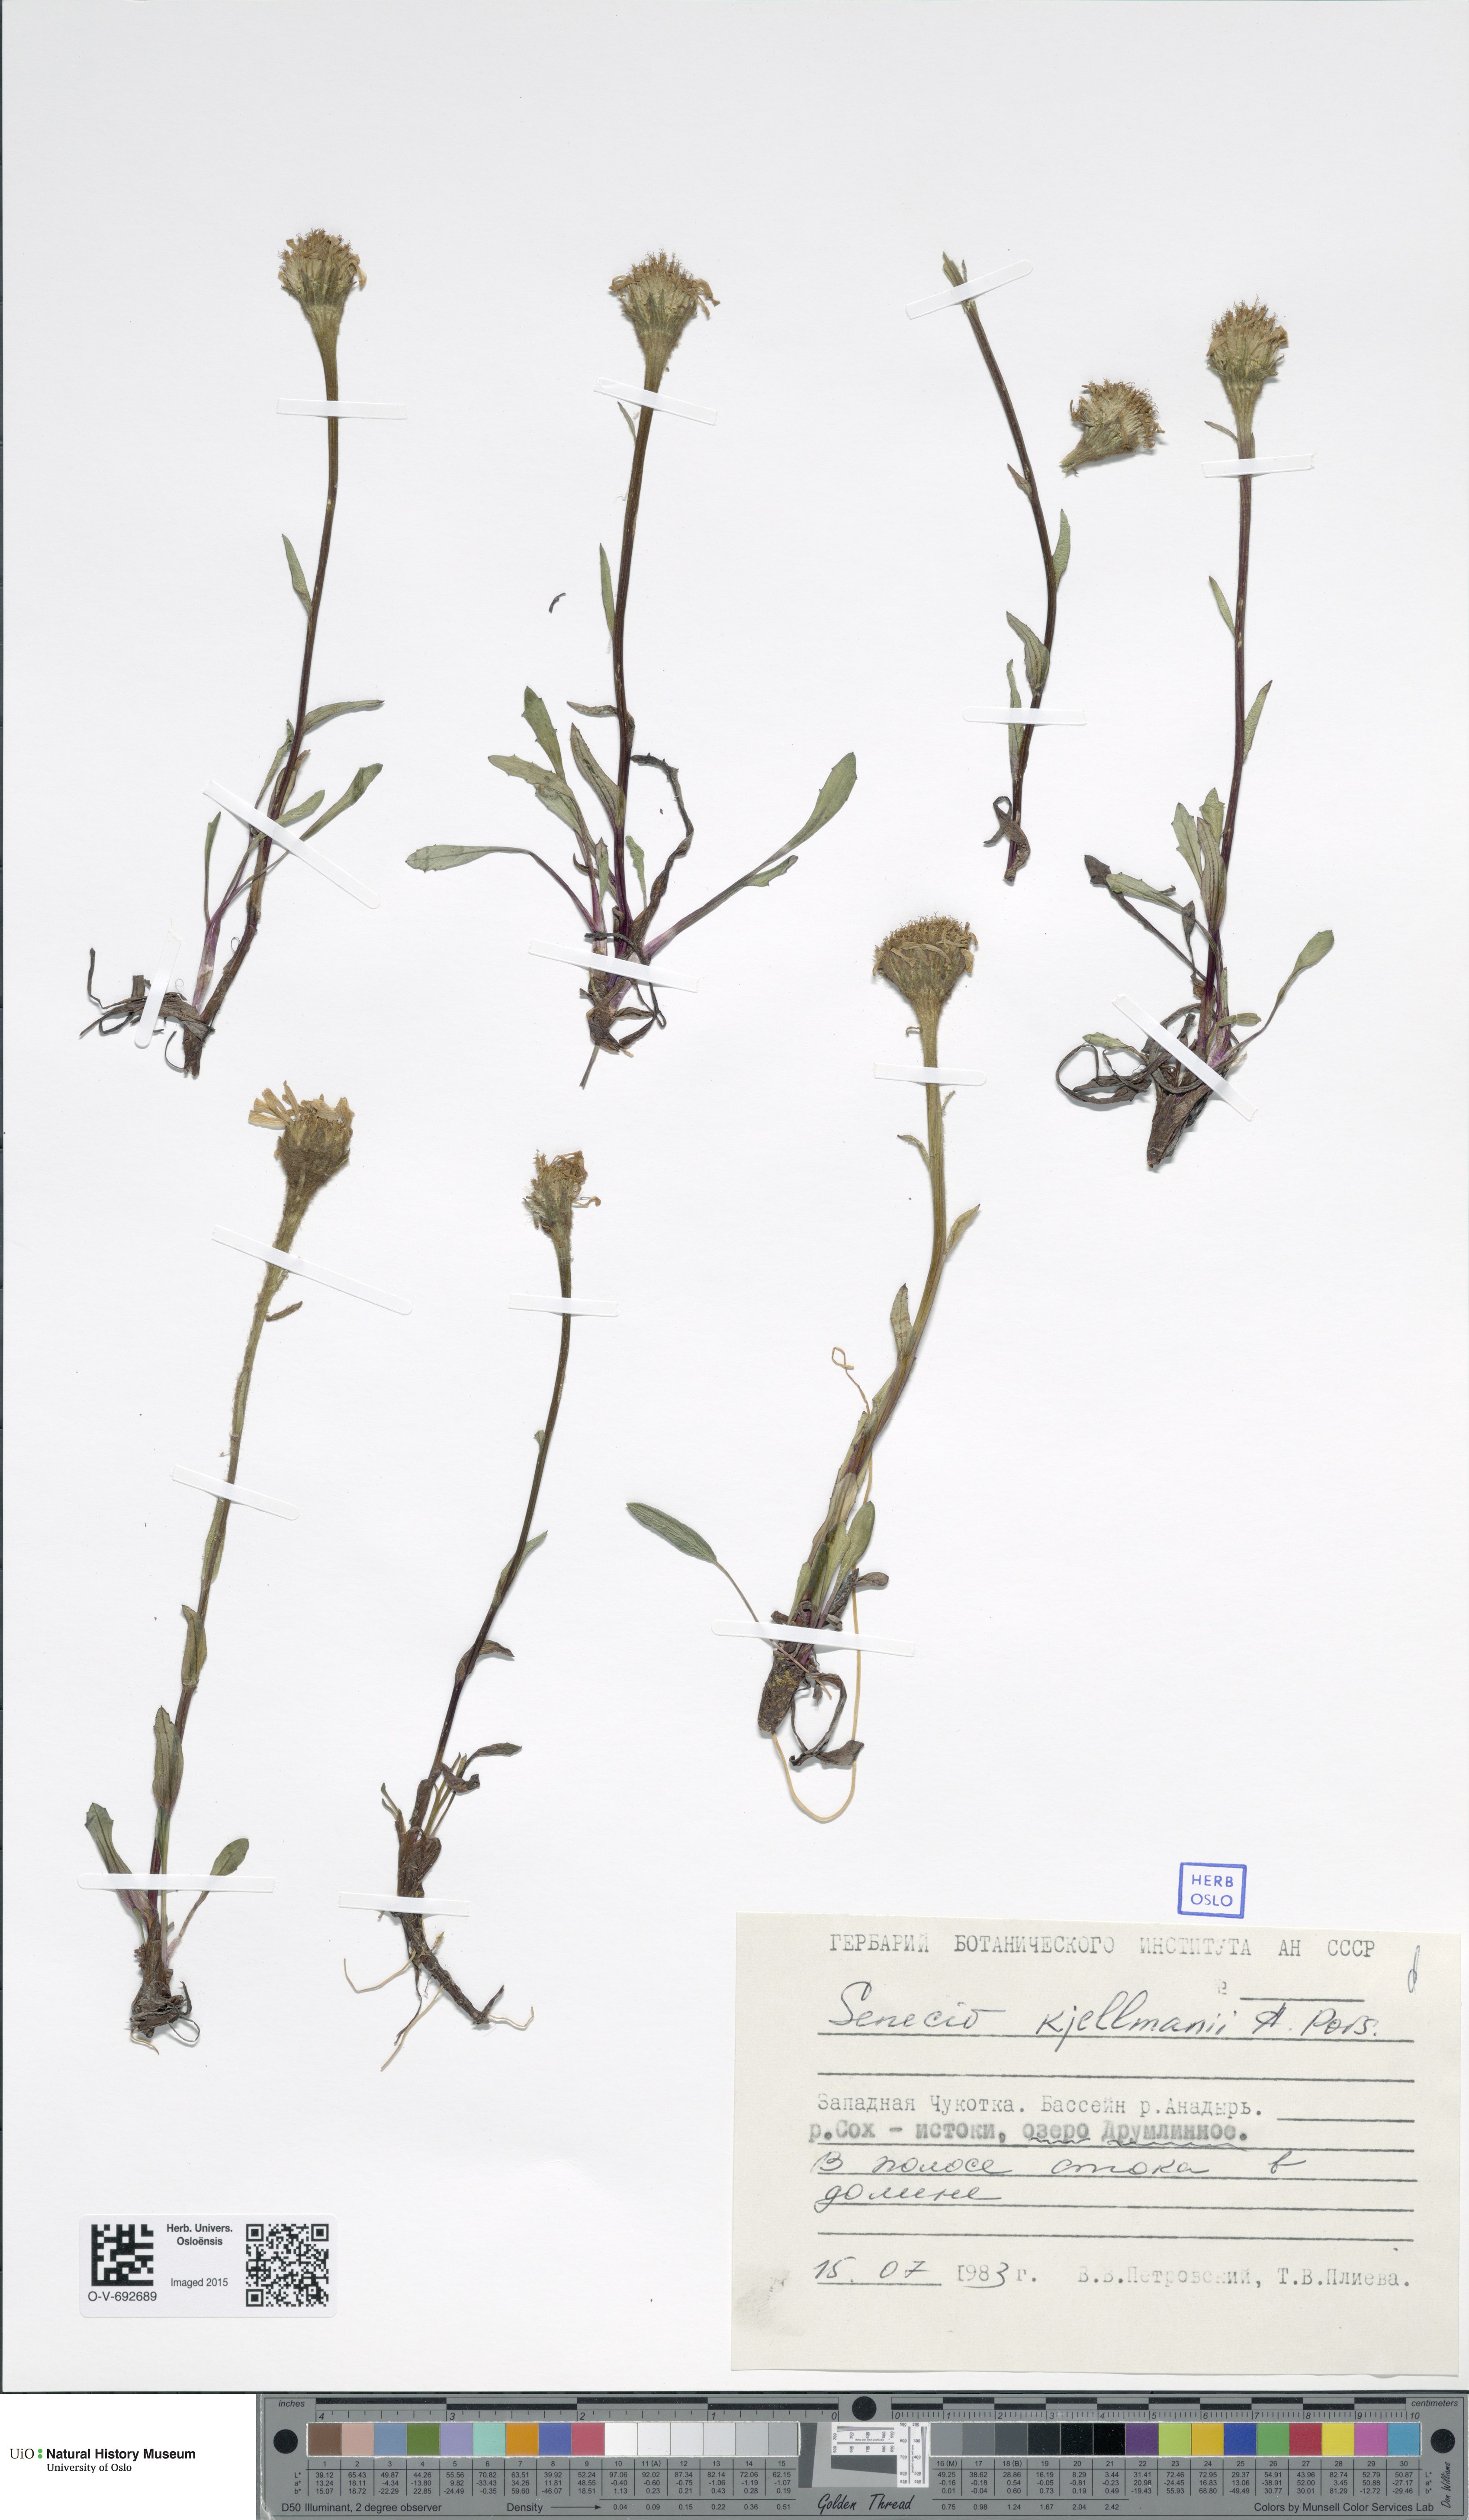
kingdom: Plantae
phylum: Tracheophyta
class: Magnoliopsida
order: Asterales
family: Asteraceae
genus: Tephroseris
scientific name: Tephroseris kjellmanii
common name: Kjellman's groundsel
